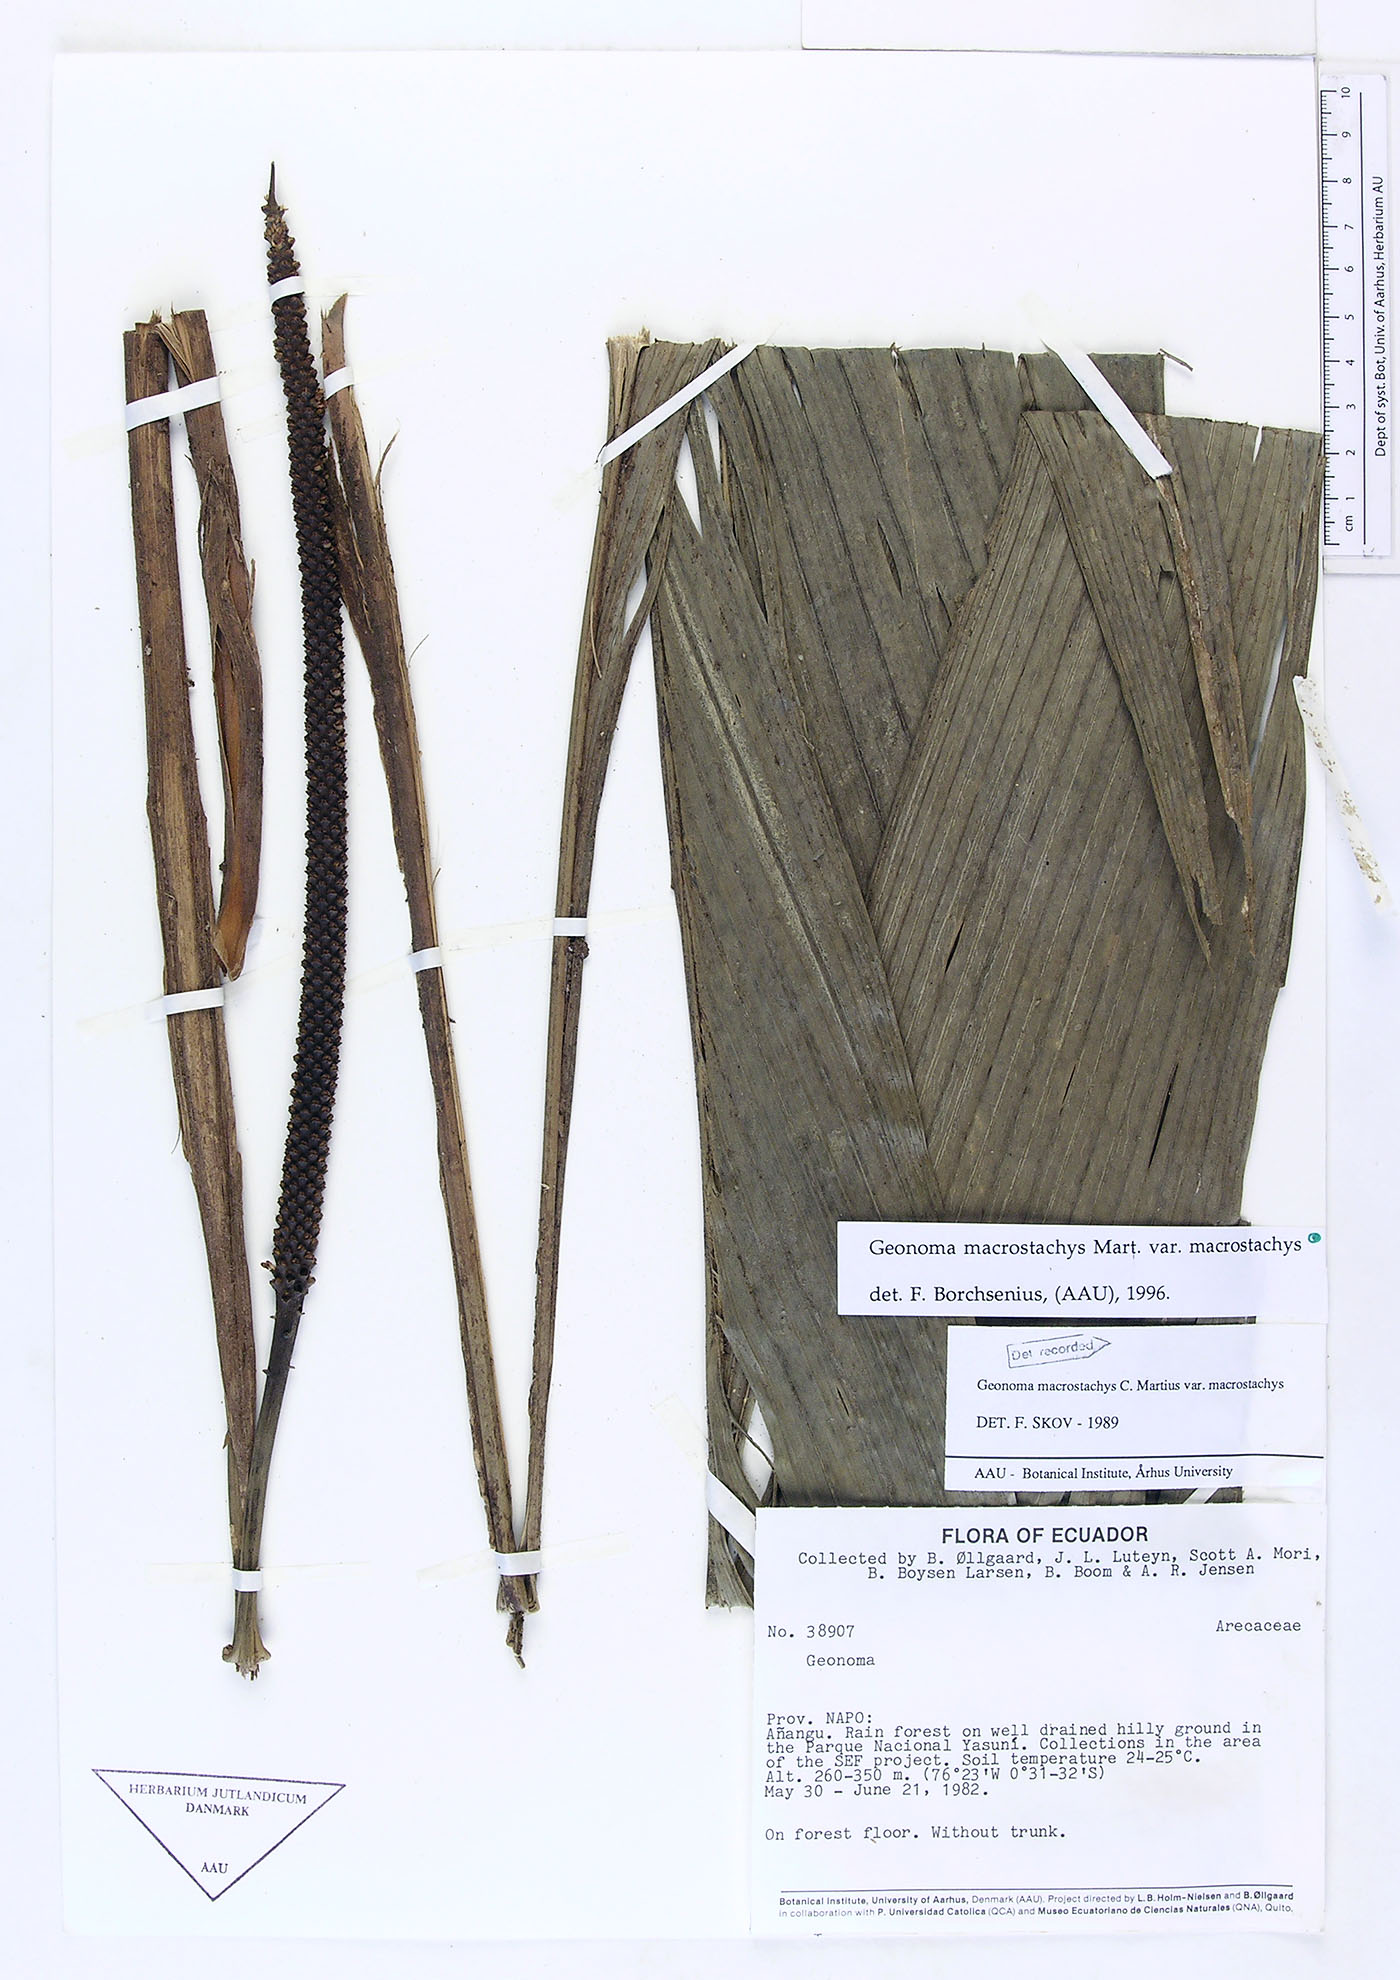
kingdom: Plantae
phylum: Tracheophyta
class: Liliopsida
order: Arecales
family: Arecaceae
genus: Geonoma
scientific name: Geonoma macrostachys
